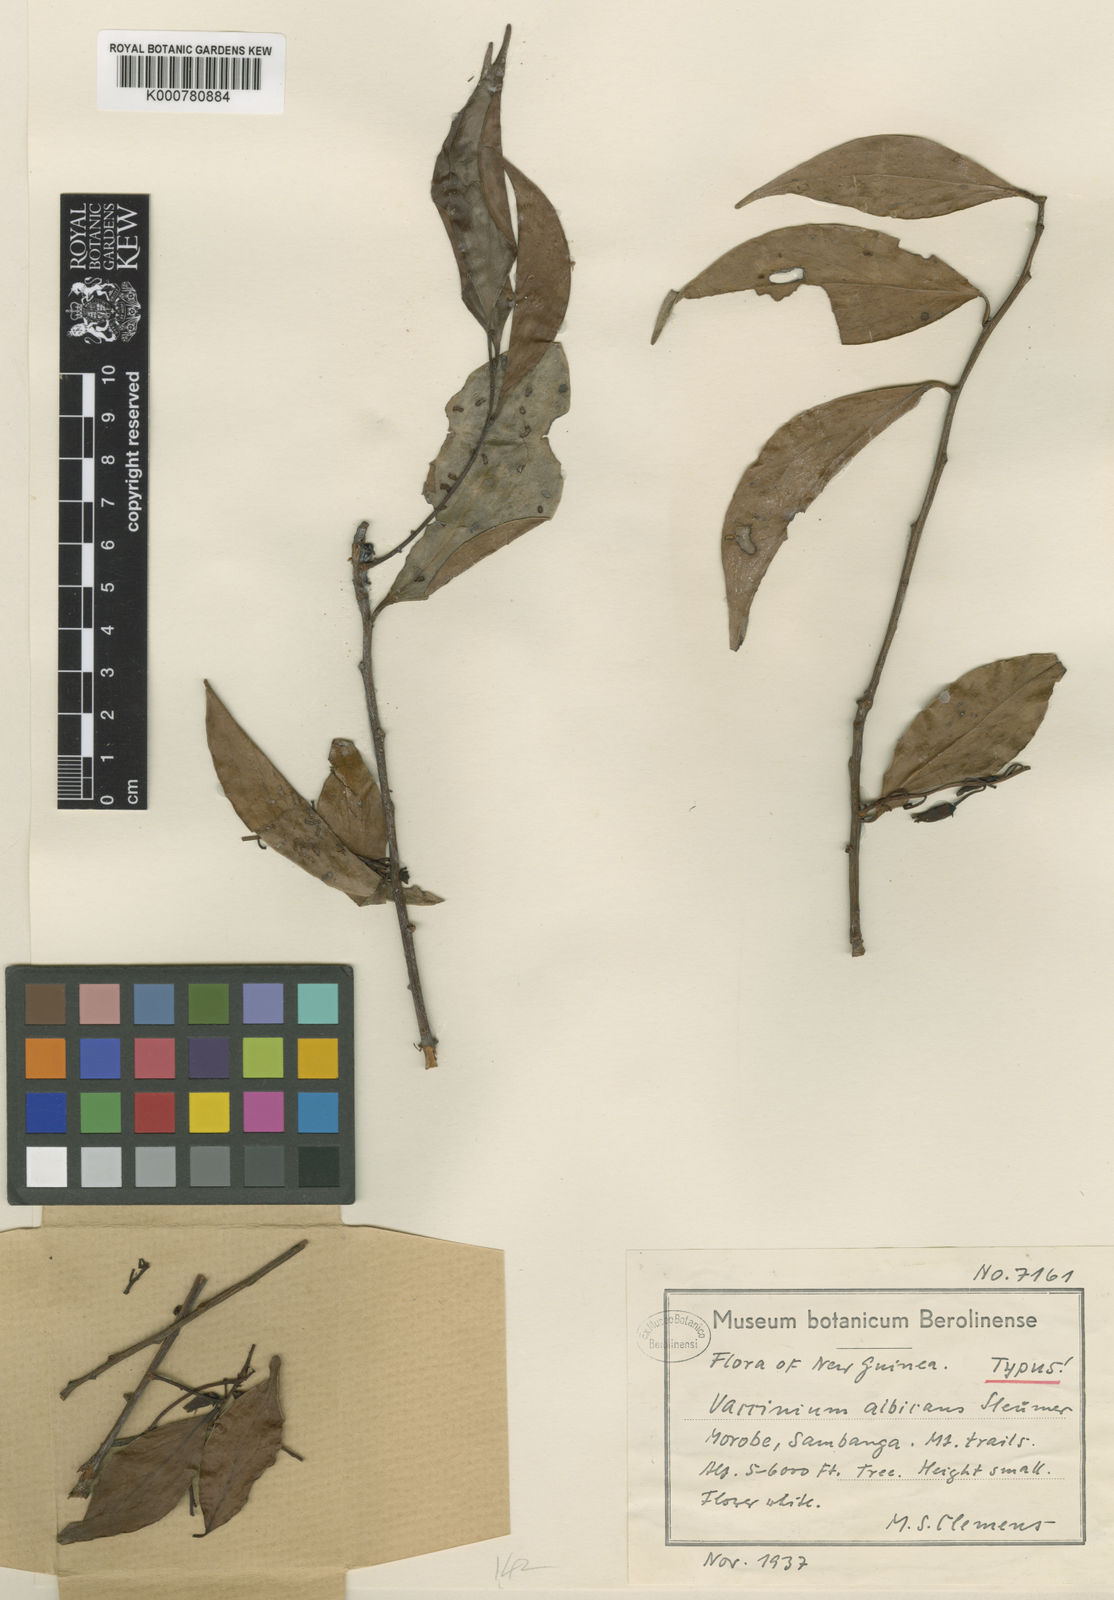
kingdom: Plantae
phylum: Tracheophyta
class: Magnoliopsida
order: Ericales
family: Ericaceae
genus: Vaccinium
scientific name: Vaccinium albicans
